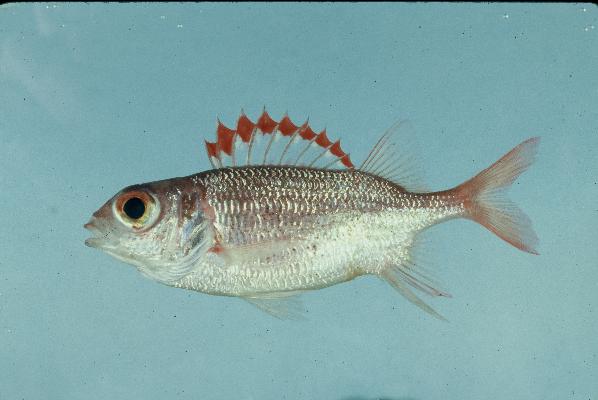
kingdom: Animalia
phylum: Chordata
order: Beryciformes
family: Holocentridae
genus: Sargocentron
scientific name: Sargocentron punctatissimum
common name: Peppered squirrelfish
